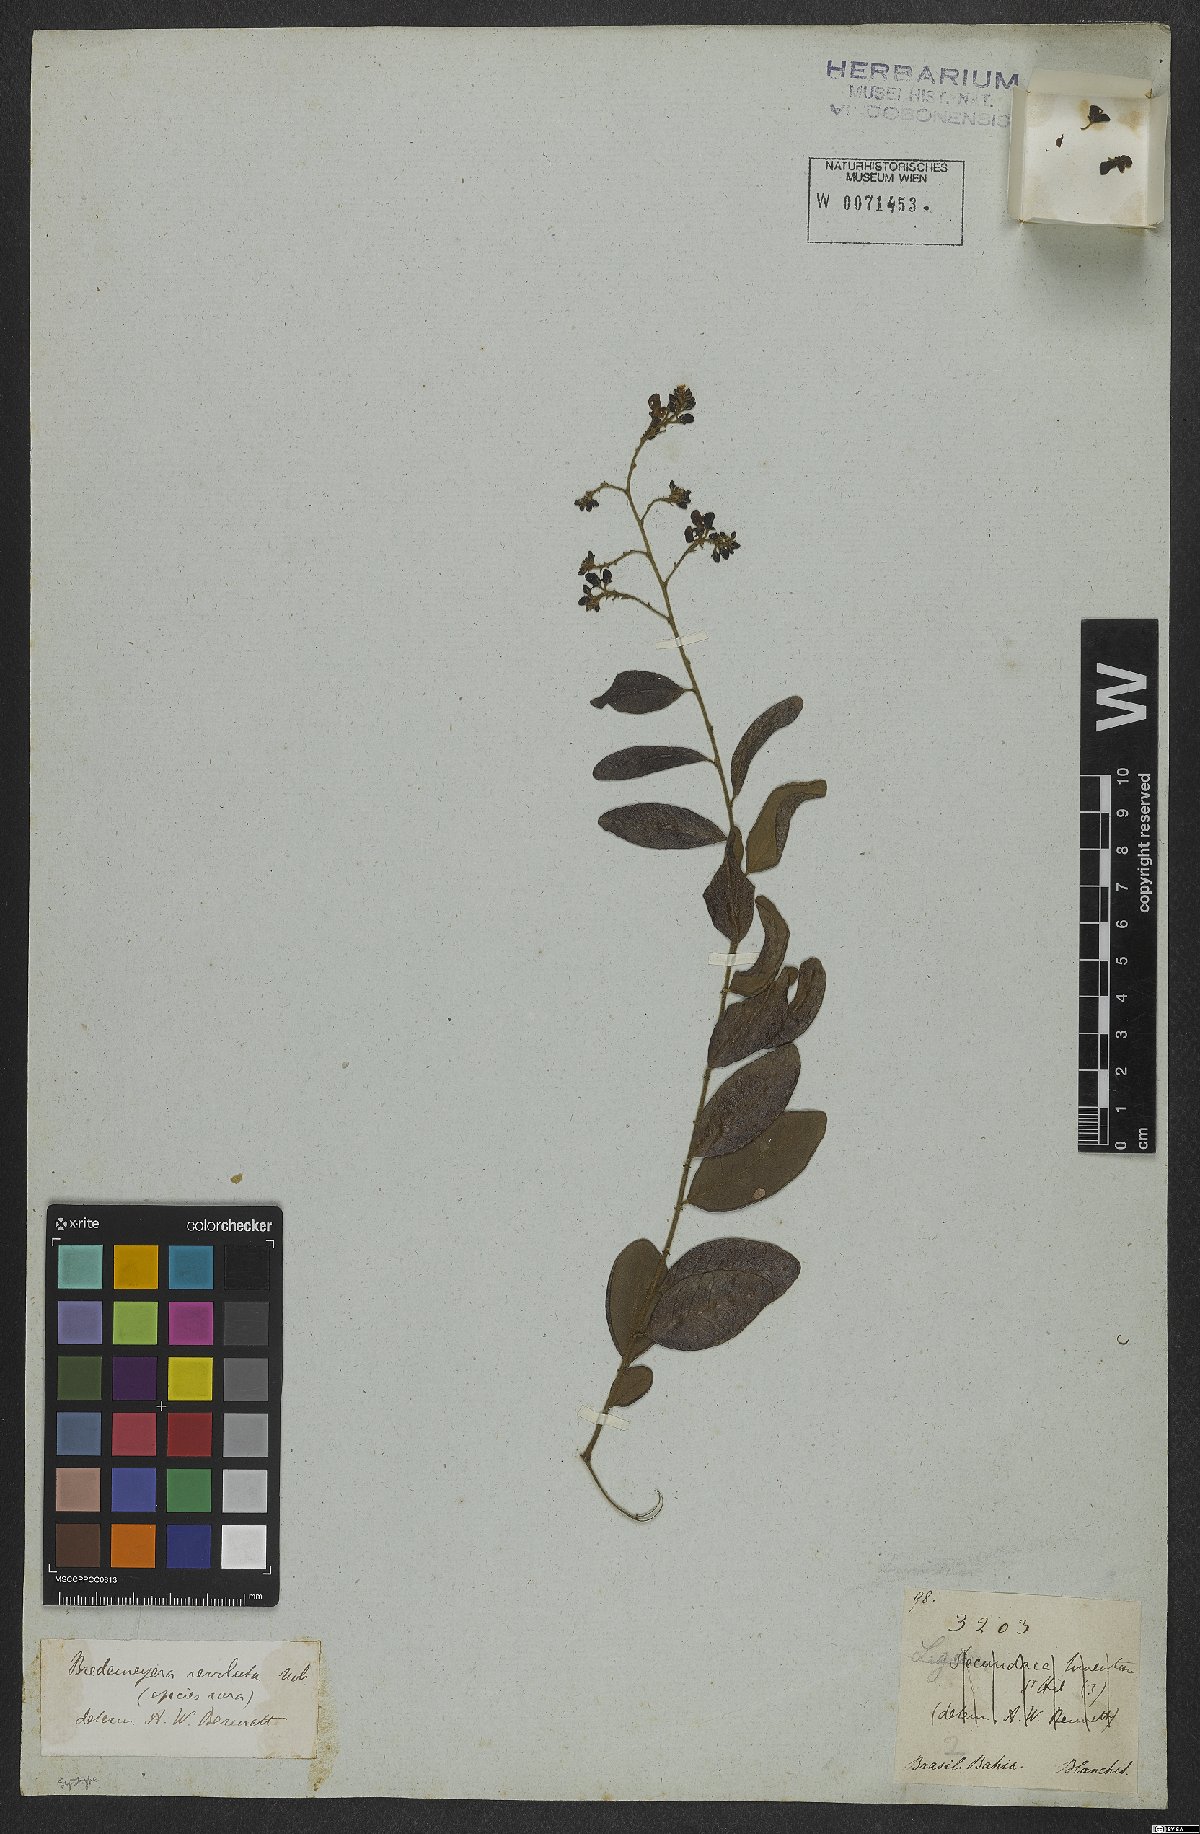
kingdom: Plantae
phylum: Tracheophyta
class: Magnoliopsida
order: Fabales
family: Polygalaceae
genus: Securidaca
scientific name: Securidaca revoluta
